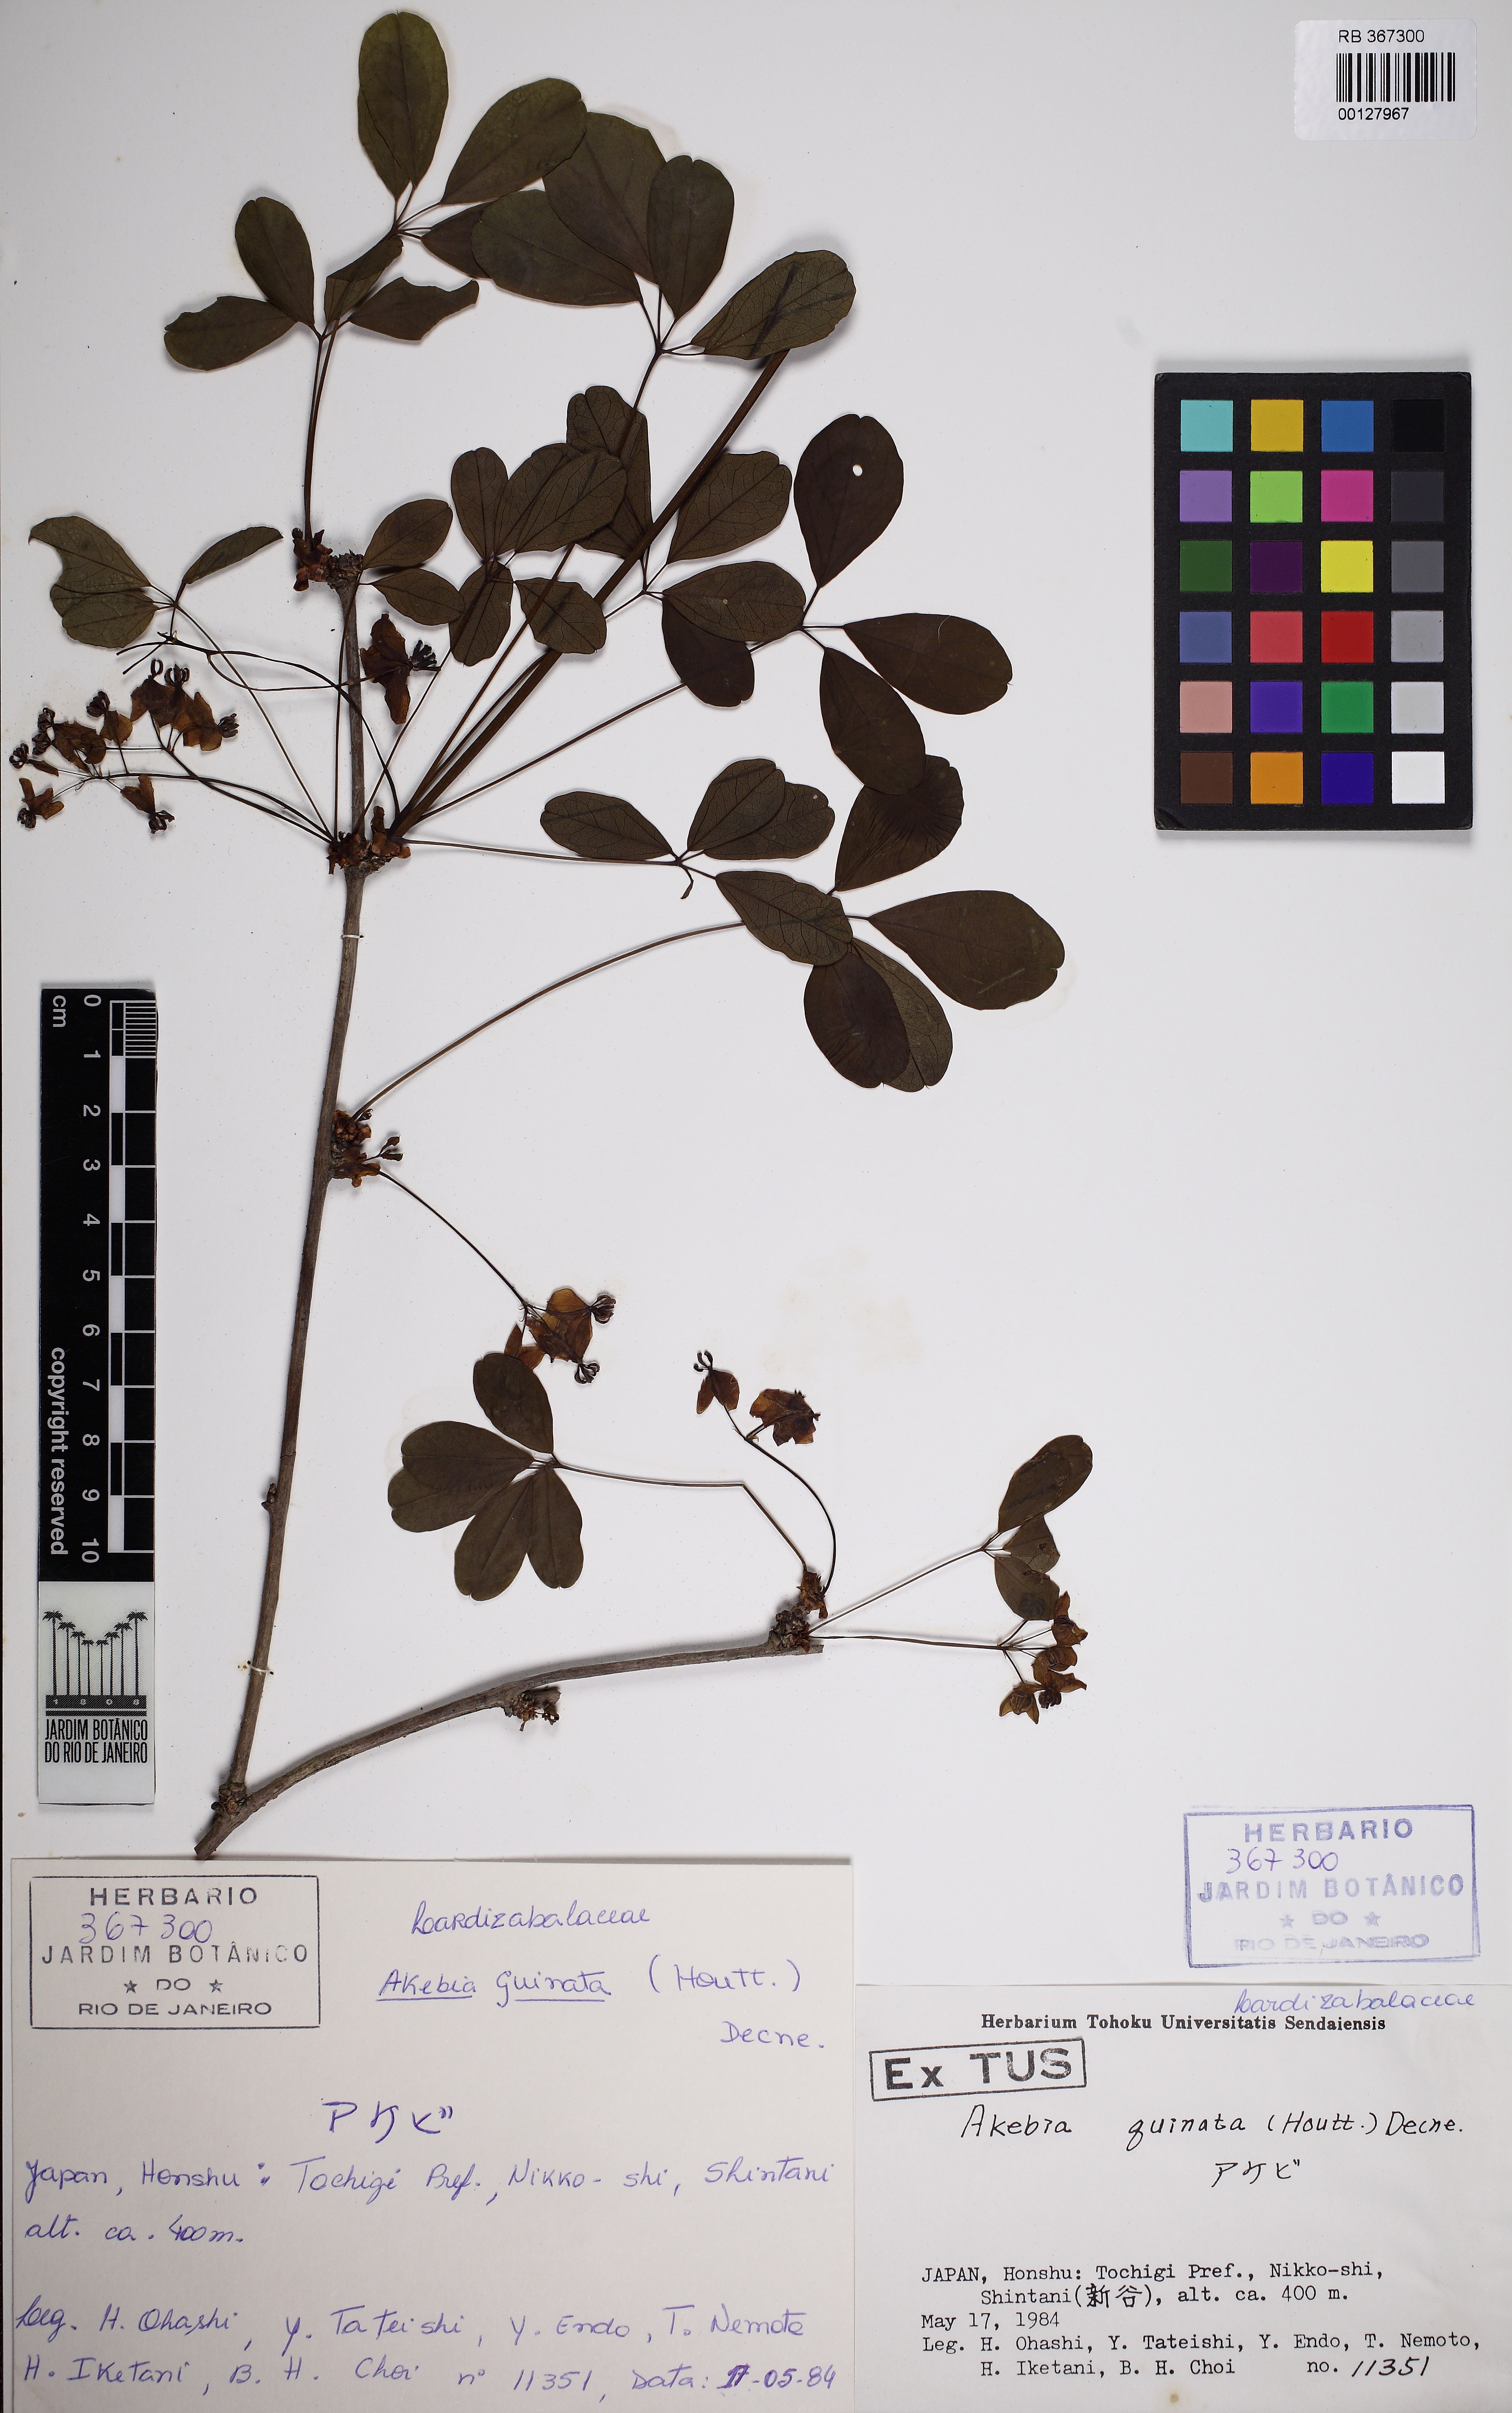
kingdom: Plantae
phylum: Tracheophyta
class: Magnoliopsida
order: Ranunculales
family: Lardizabalaceae
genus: Akebia
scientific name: Akebia quinata
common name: Five-leaf akebia
